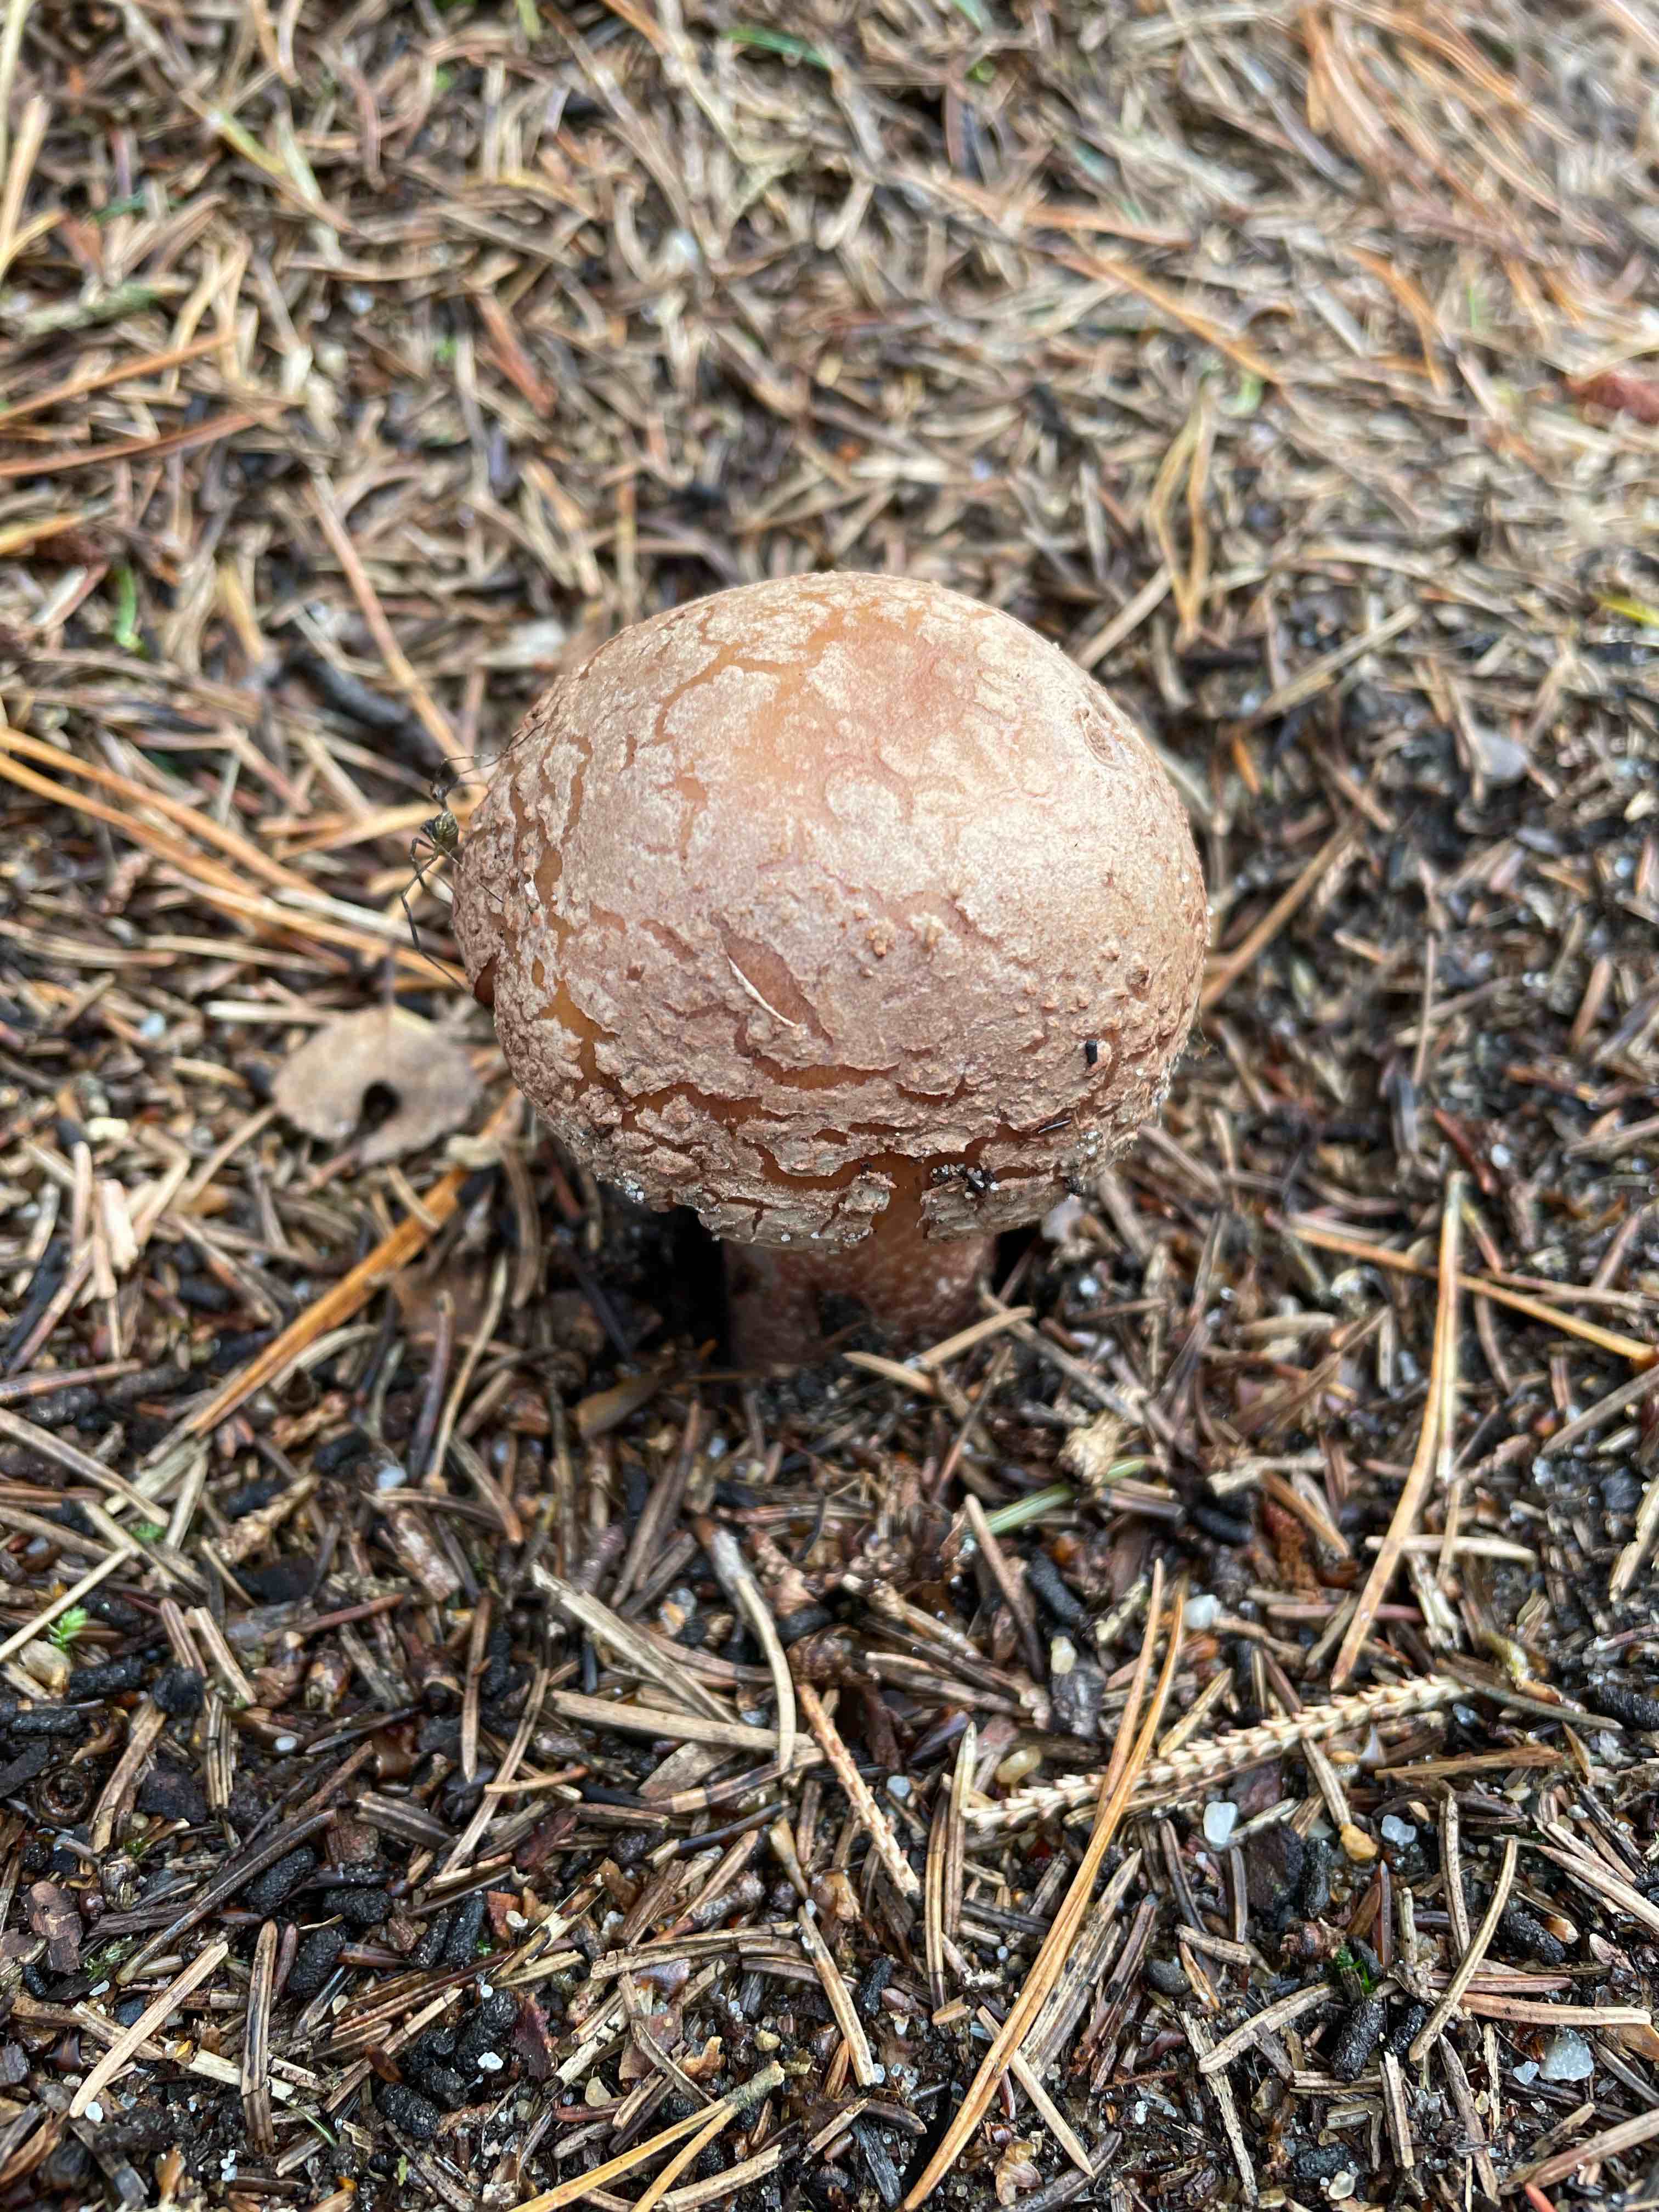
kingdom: Fungi
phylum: Basidiomycota
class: Agaricomycetes
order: Agaricales
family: Amanitaceae
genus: Amanita
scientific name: Amanita rubescens
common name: rødmende fluesvamp
